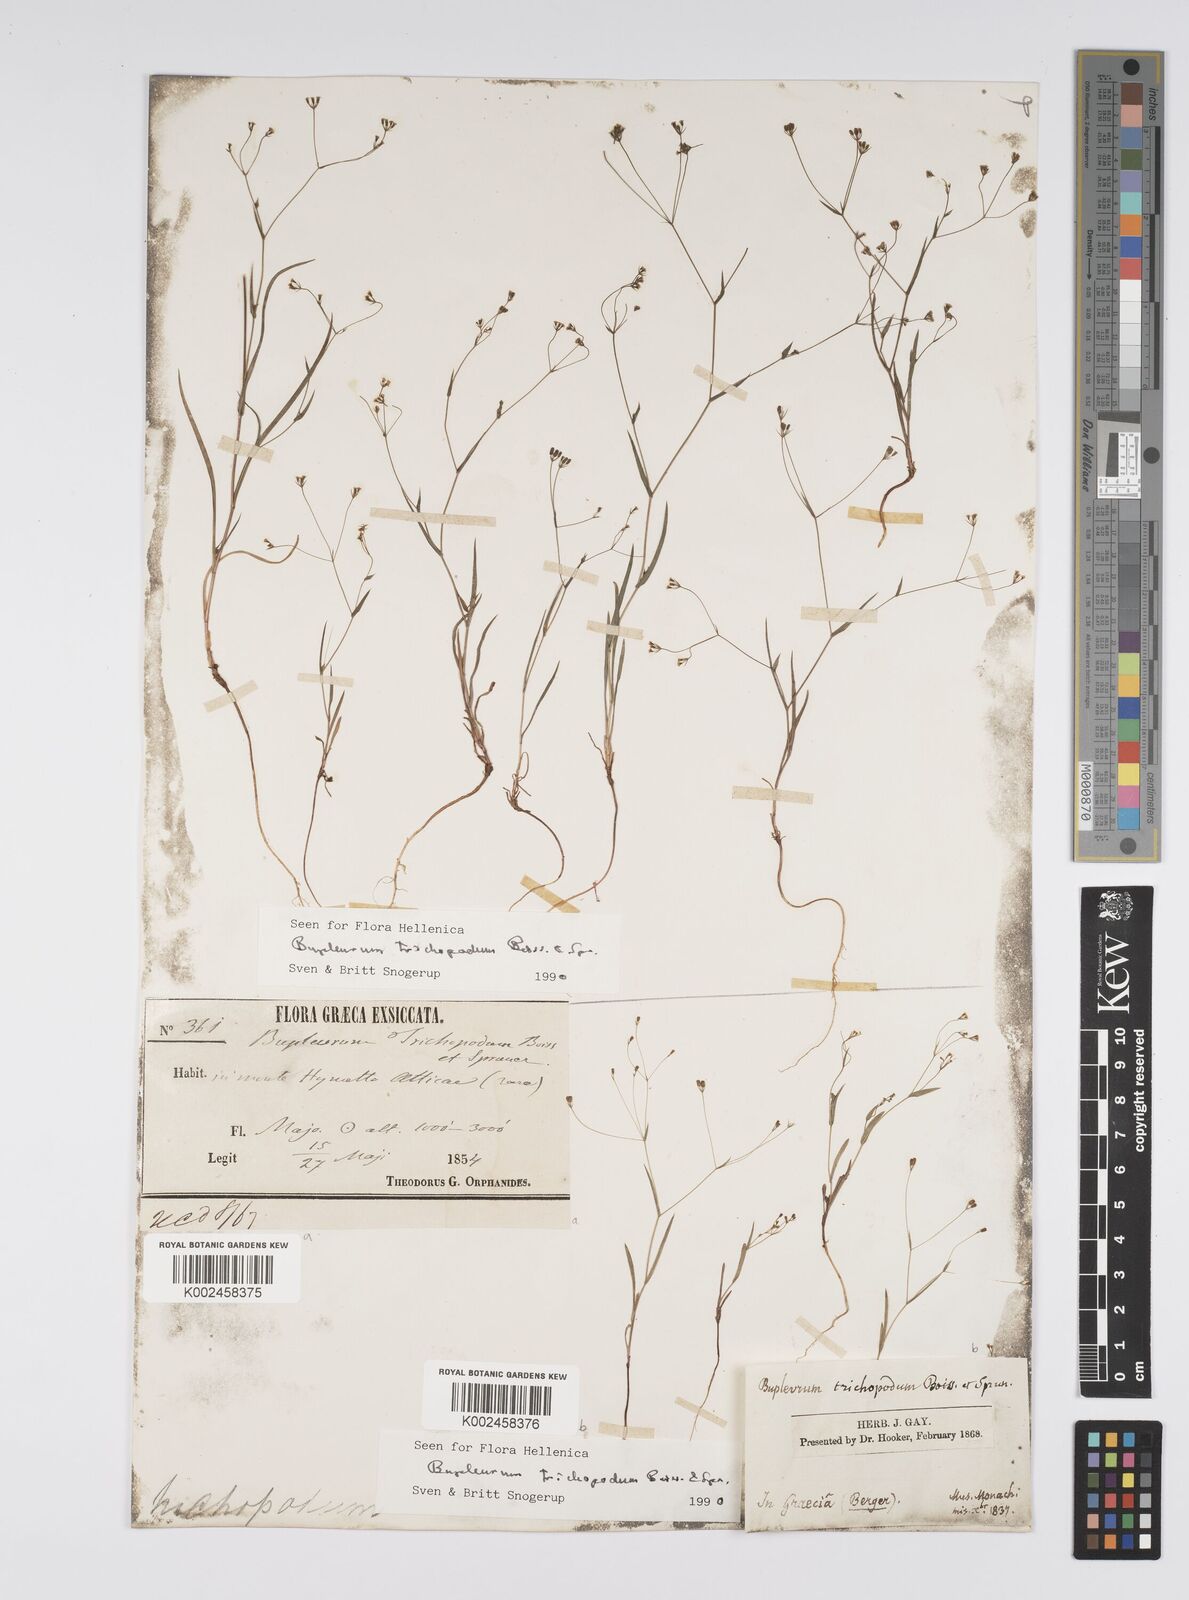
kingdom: Plantae
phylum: Tracheophyta
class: Magnoliopsida
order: Apiales
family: Apiaceae
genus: Bupleurum
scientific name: Bupleurum trichopodum
